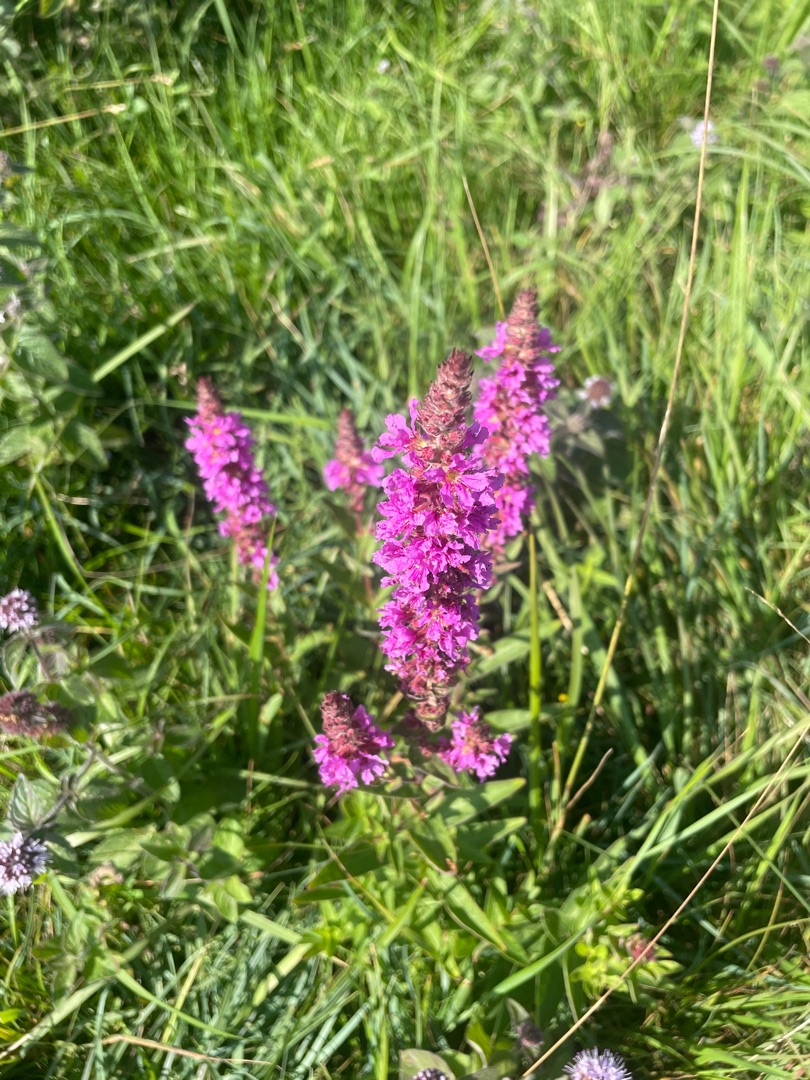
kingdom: Plantae
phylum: Tracheophyta
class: Magnoliopsida
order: Myrtales
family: Lythraceae
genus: Lythrum
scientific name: Lythrum salicaria
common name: Kattehale
